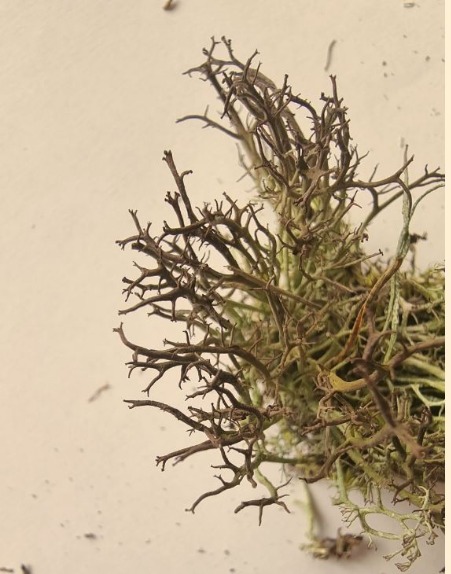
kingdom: Fungi
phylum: Ascomycota
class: Lecanoromycetes
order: Lecanorales
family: Cladoniaceae
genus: Cladonia
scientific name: Cladonia furcata
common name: Kløftet bægerlav
